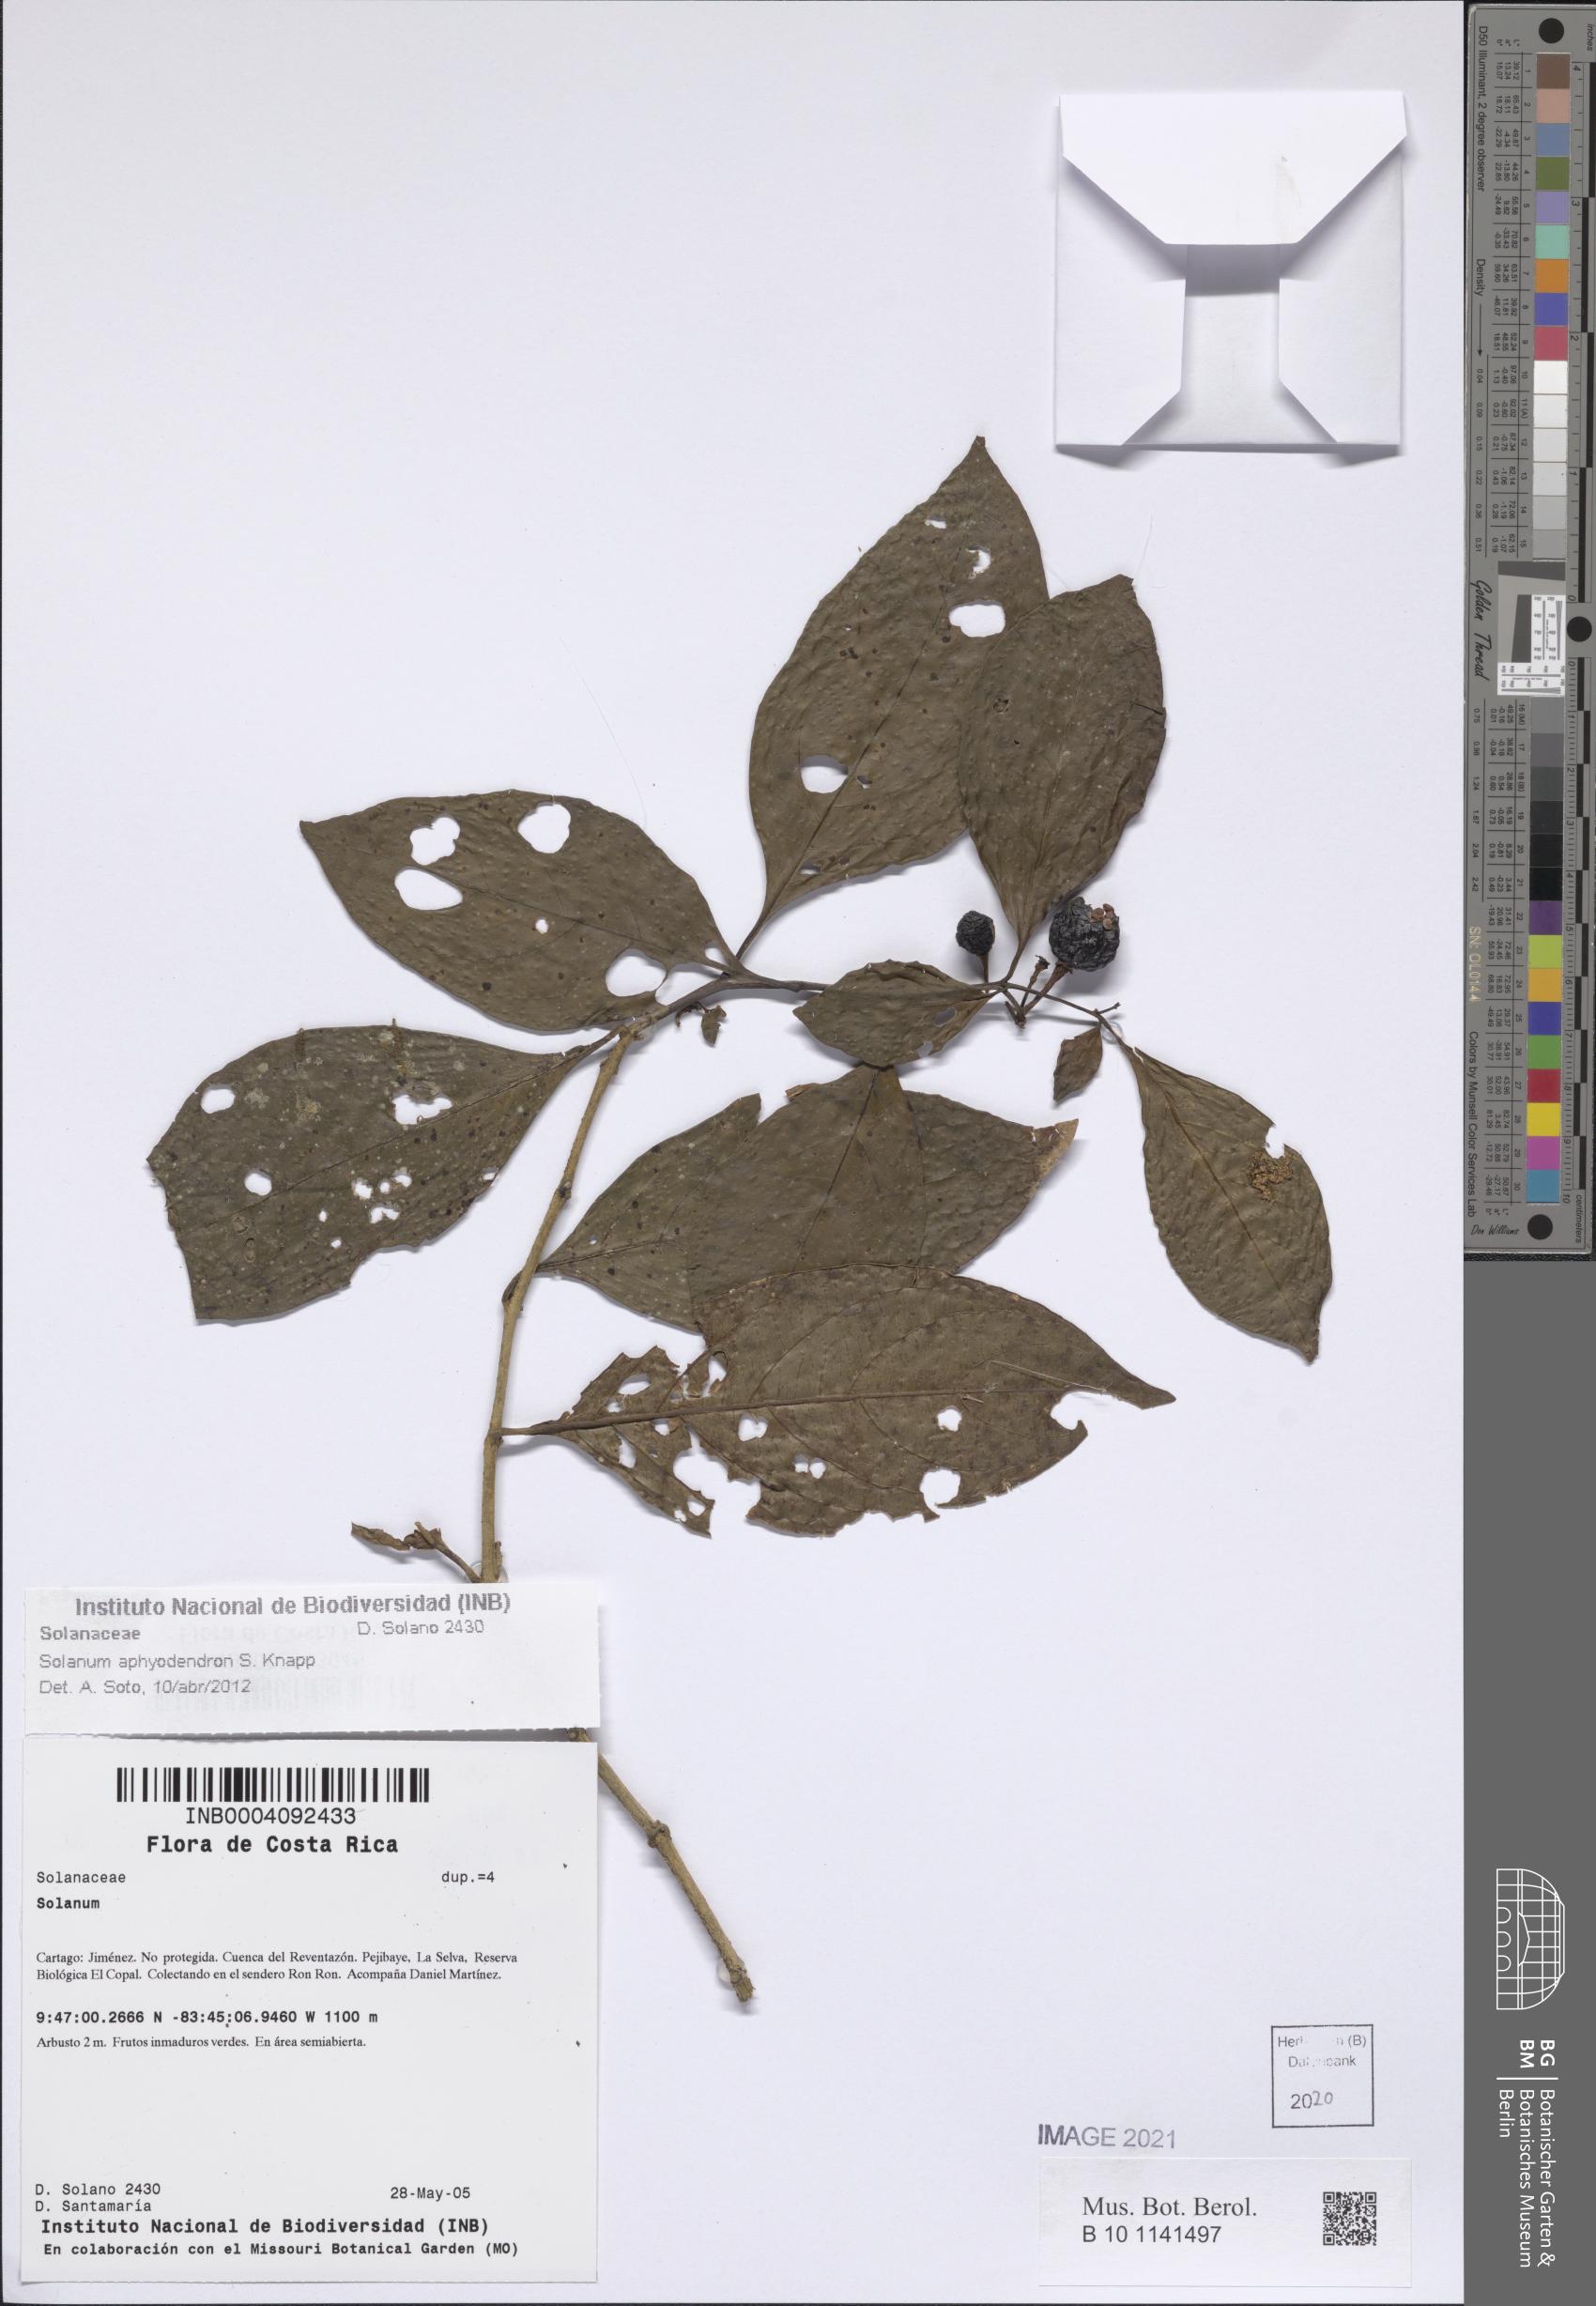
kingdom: Plantae
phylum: Tracheophyta
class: Magnoliopsida
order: Solanales
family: Solanaceae
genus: Solanum
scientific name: Solanum aphyodendron
